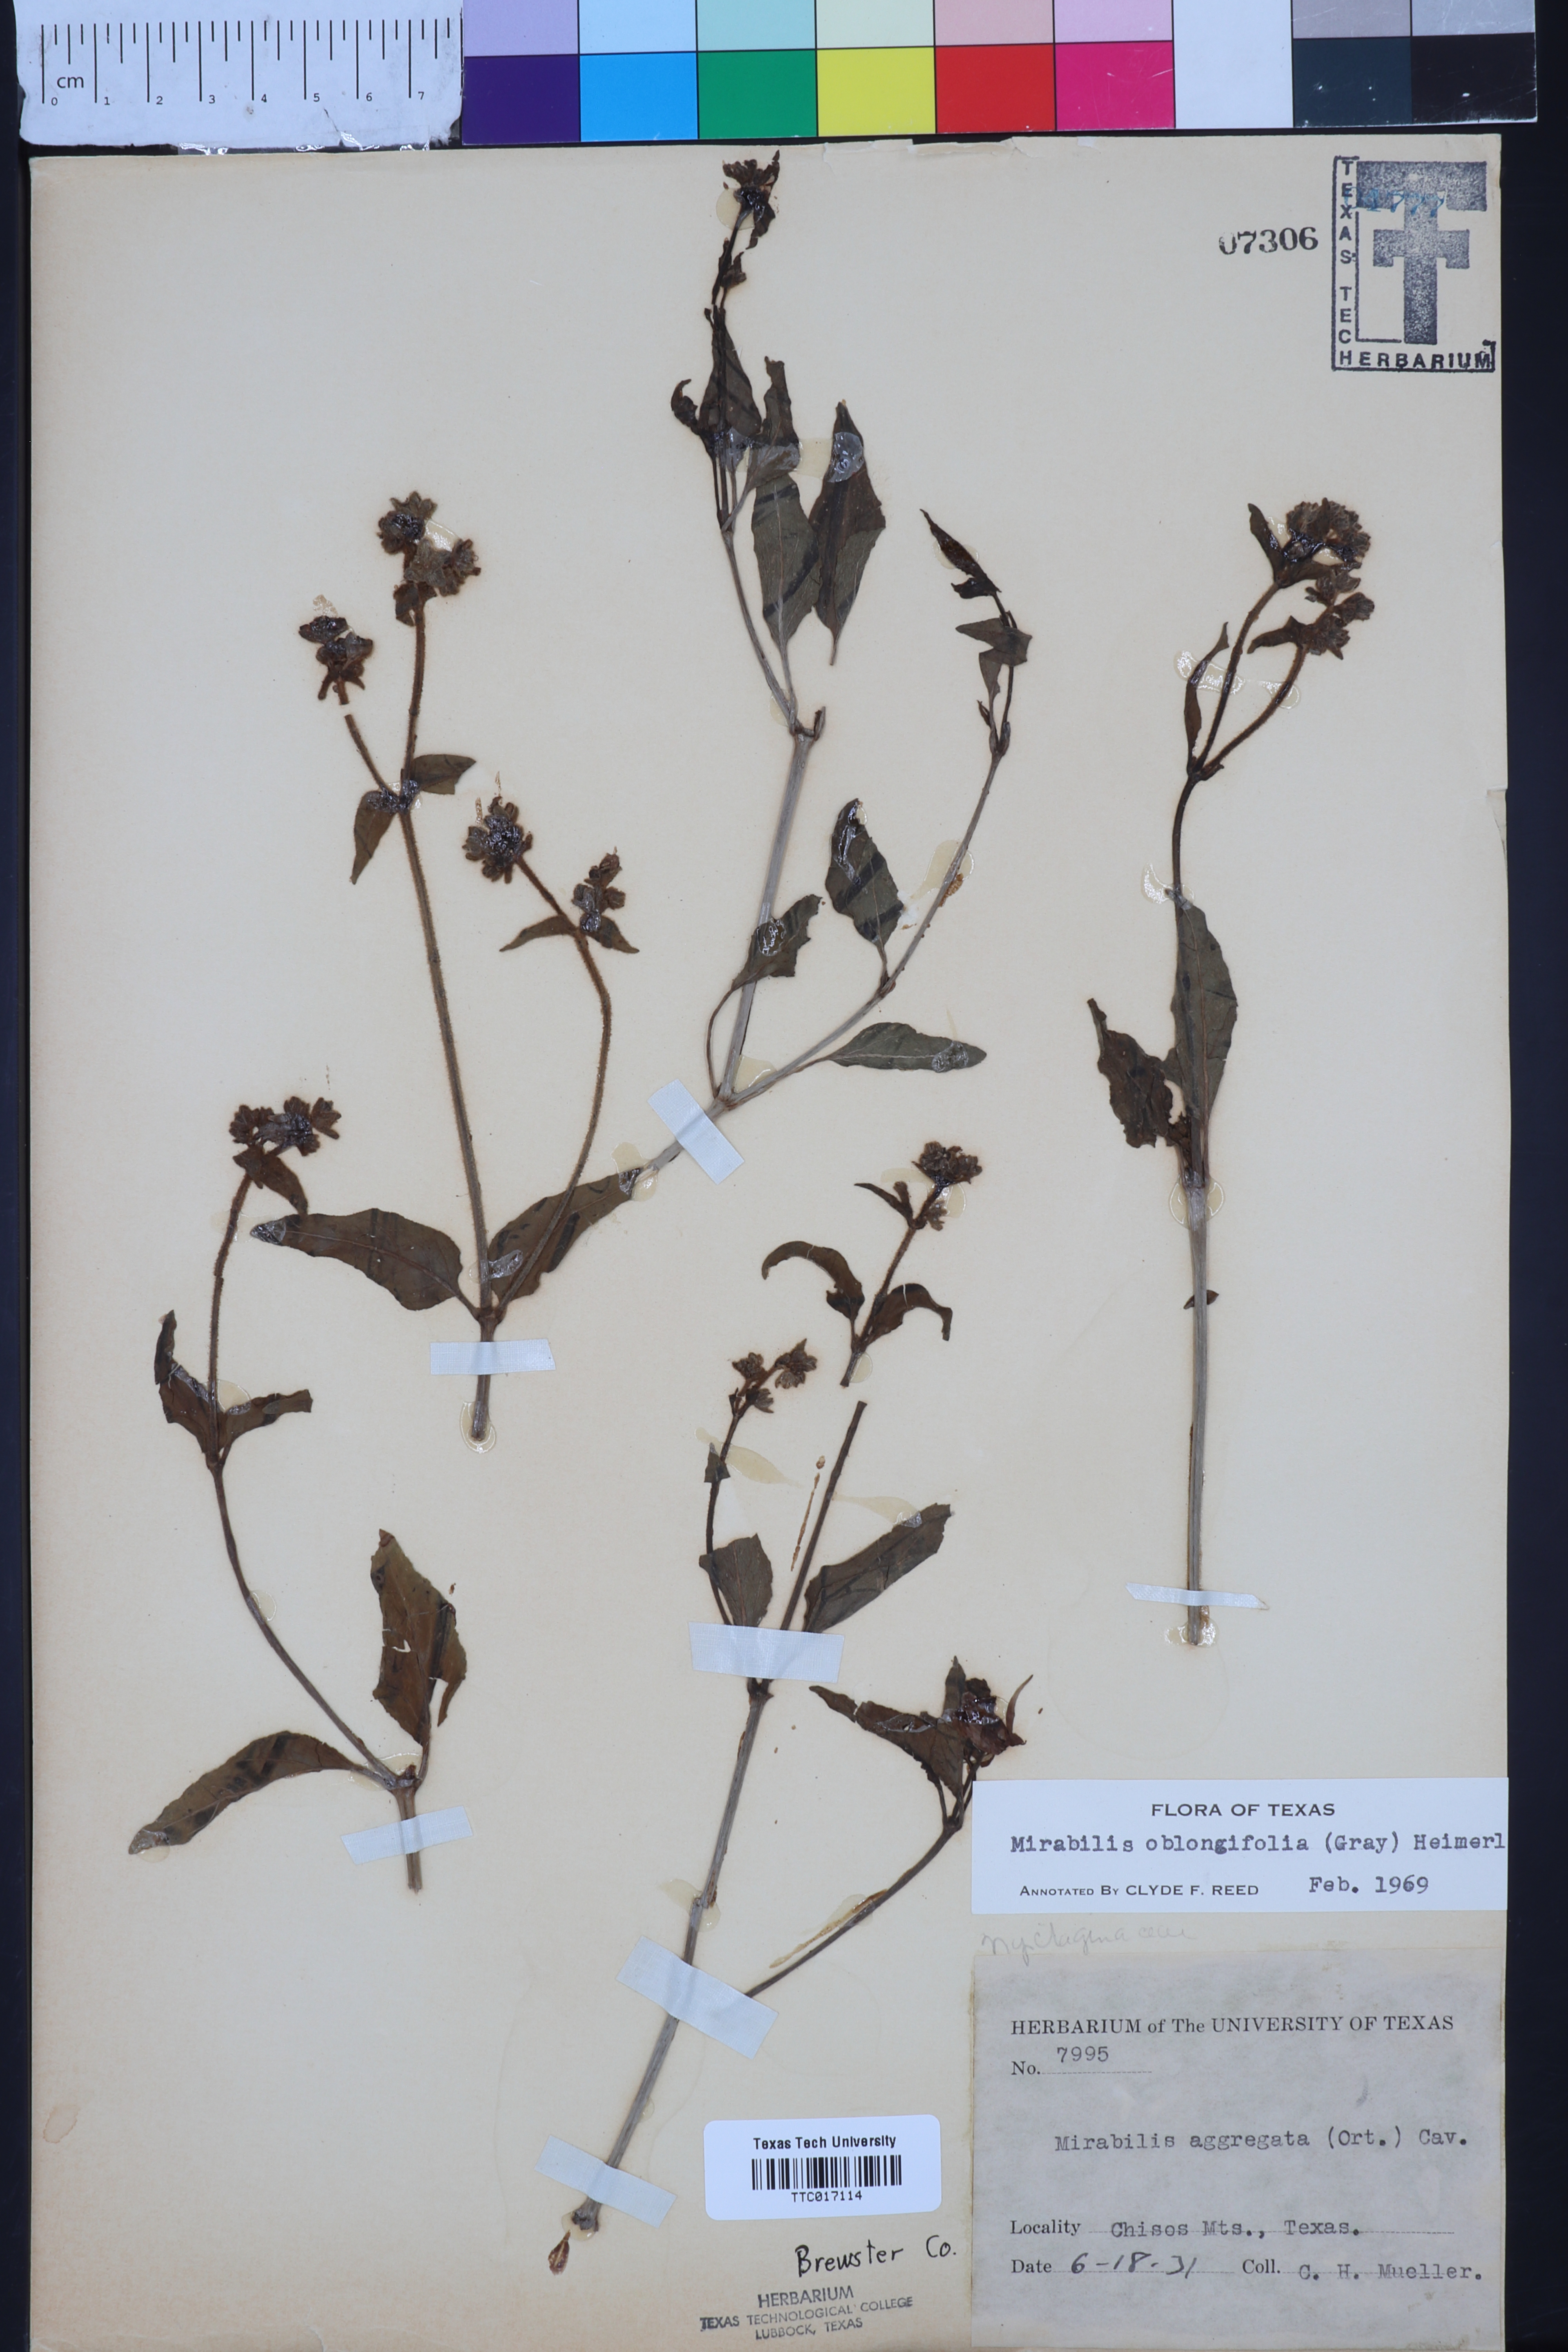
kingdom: Plantae
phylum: Tracheophyta
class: Magnoliopsida
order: Caryophyllales
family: Nyctaginaceae
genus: Mirabilis
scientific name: Mirabilis albida
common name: Hairy four-o'clock
